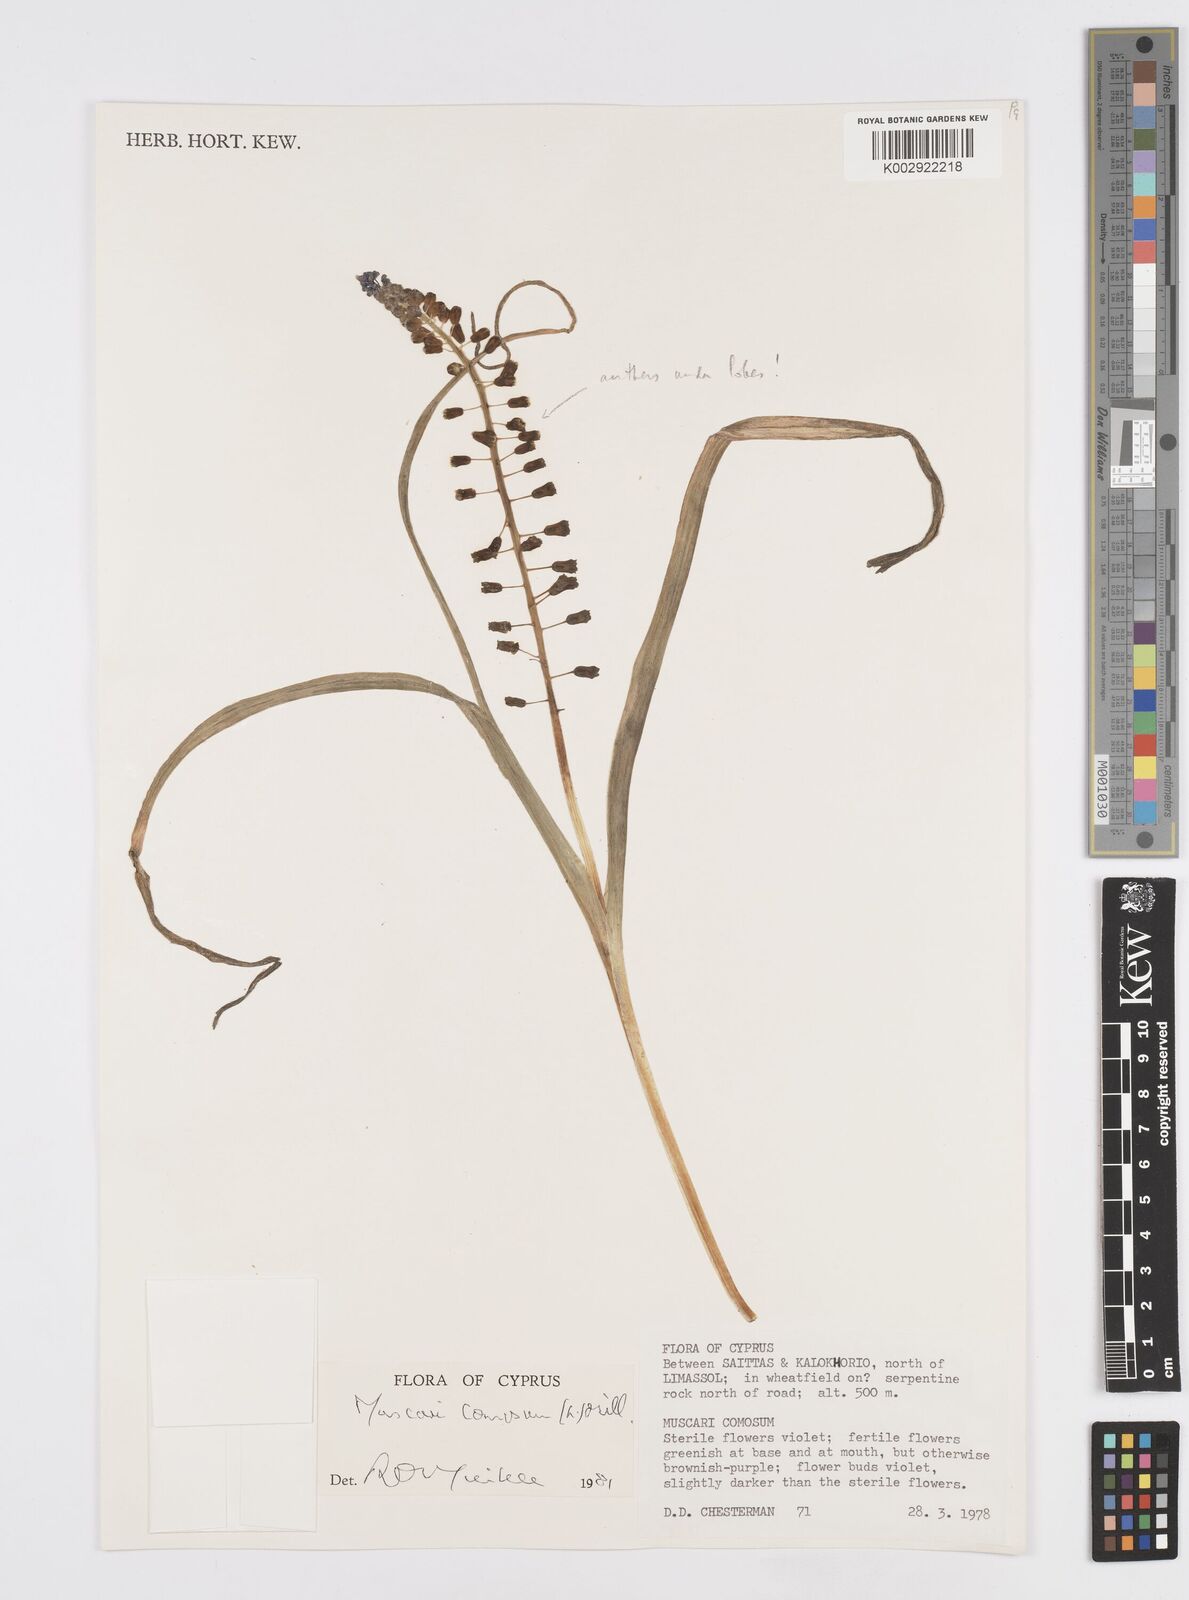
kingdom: Plantae
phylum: Tracheophyta
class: Liliopsida
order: Asparagales
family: Asparagaceae
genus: Muscari
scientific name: Muscari comosum
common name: Tassel hyacinth
